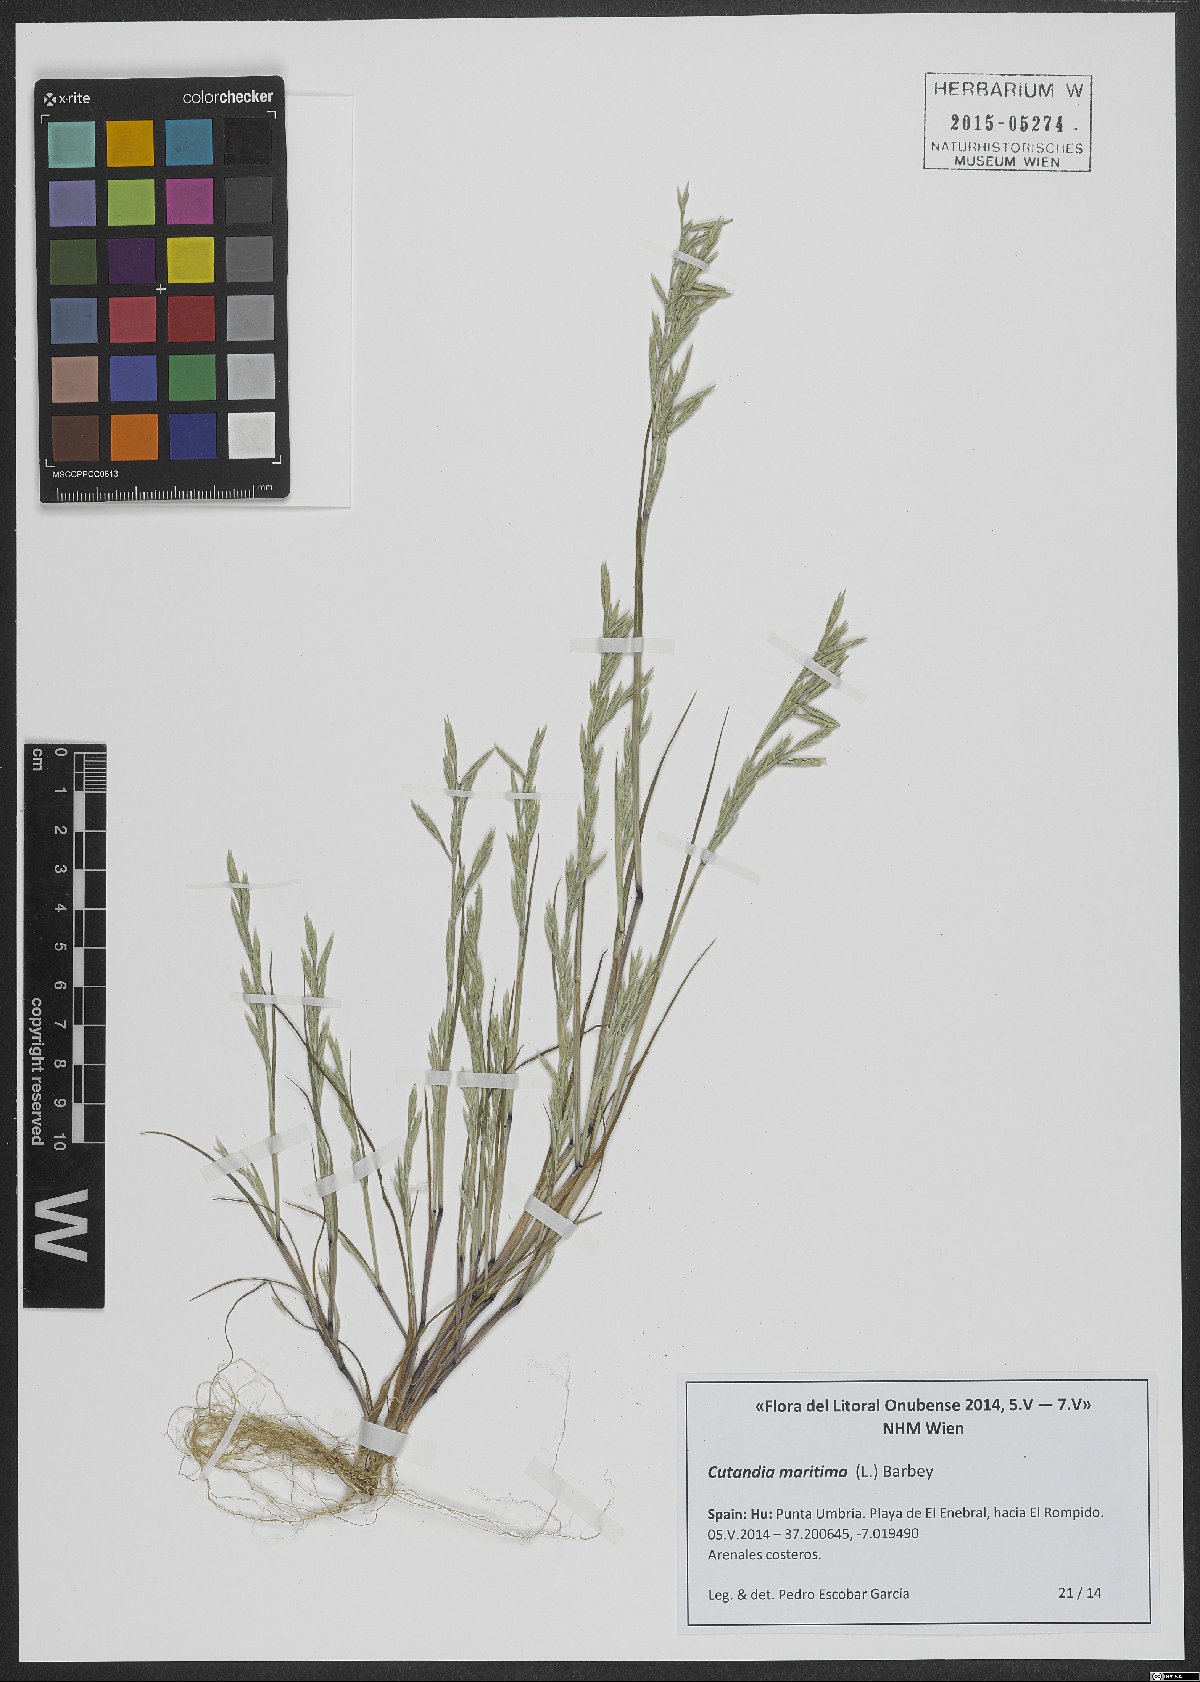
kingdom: Plantae
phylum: Tracheophyta
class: Liliopsida
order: Poales
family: Poaceae
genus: Cutandia
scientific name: Cutandia maritima
